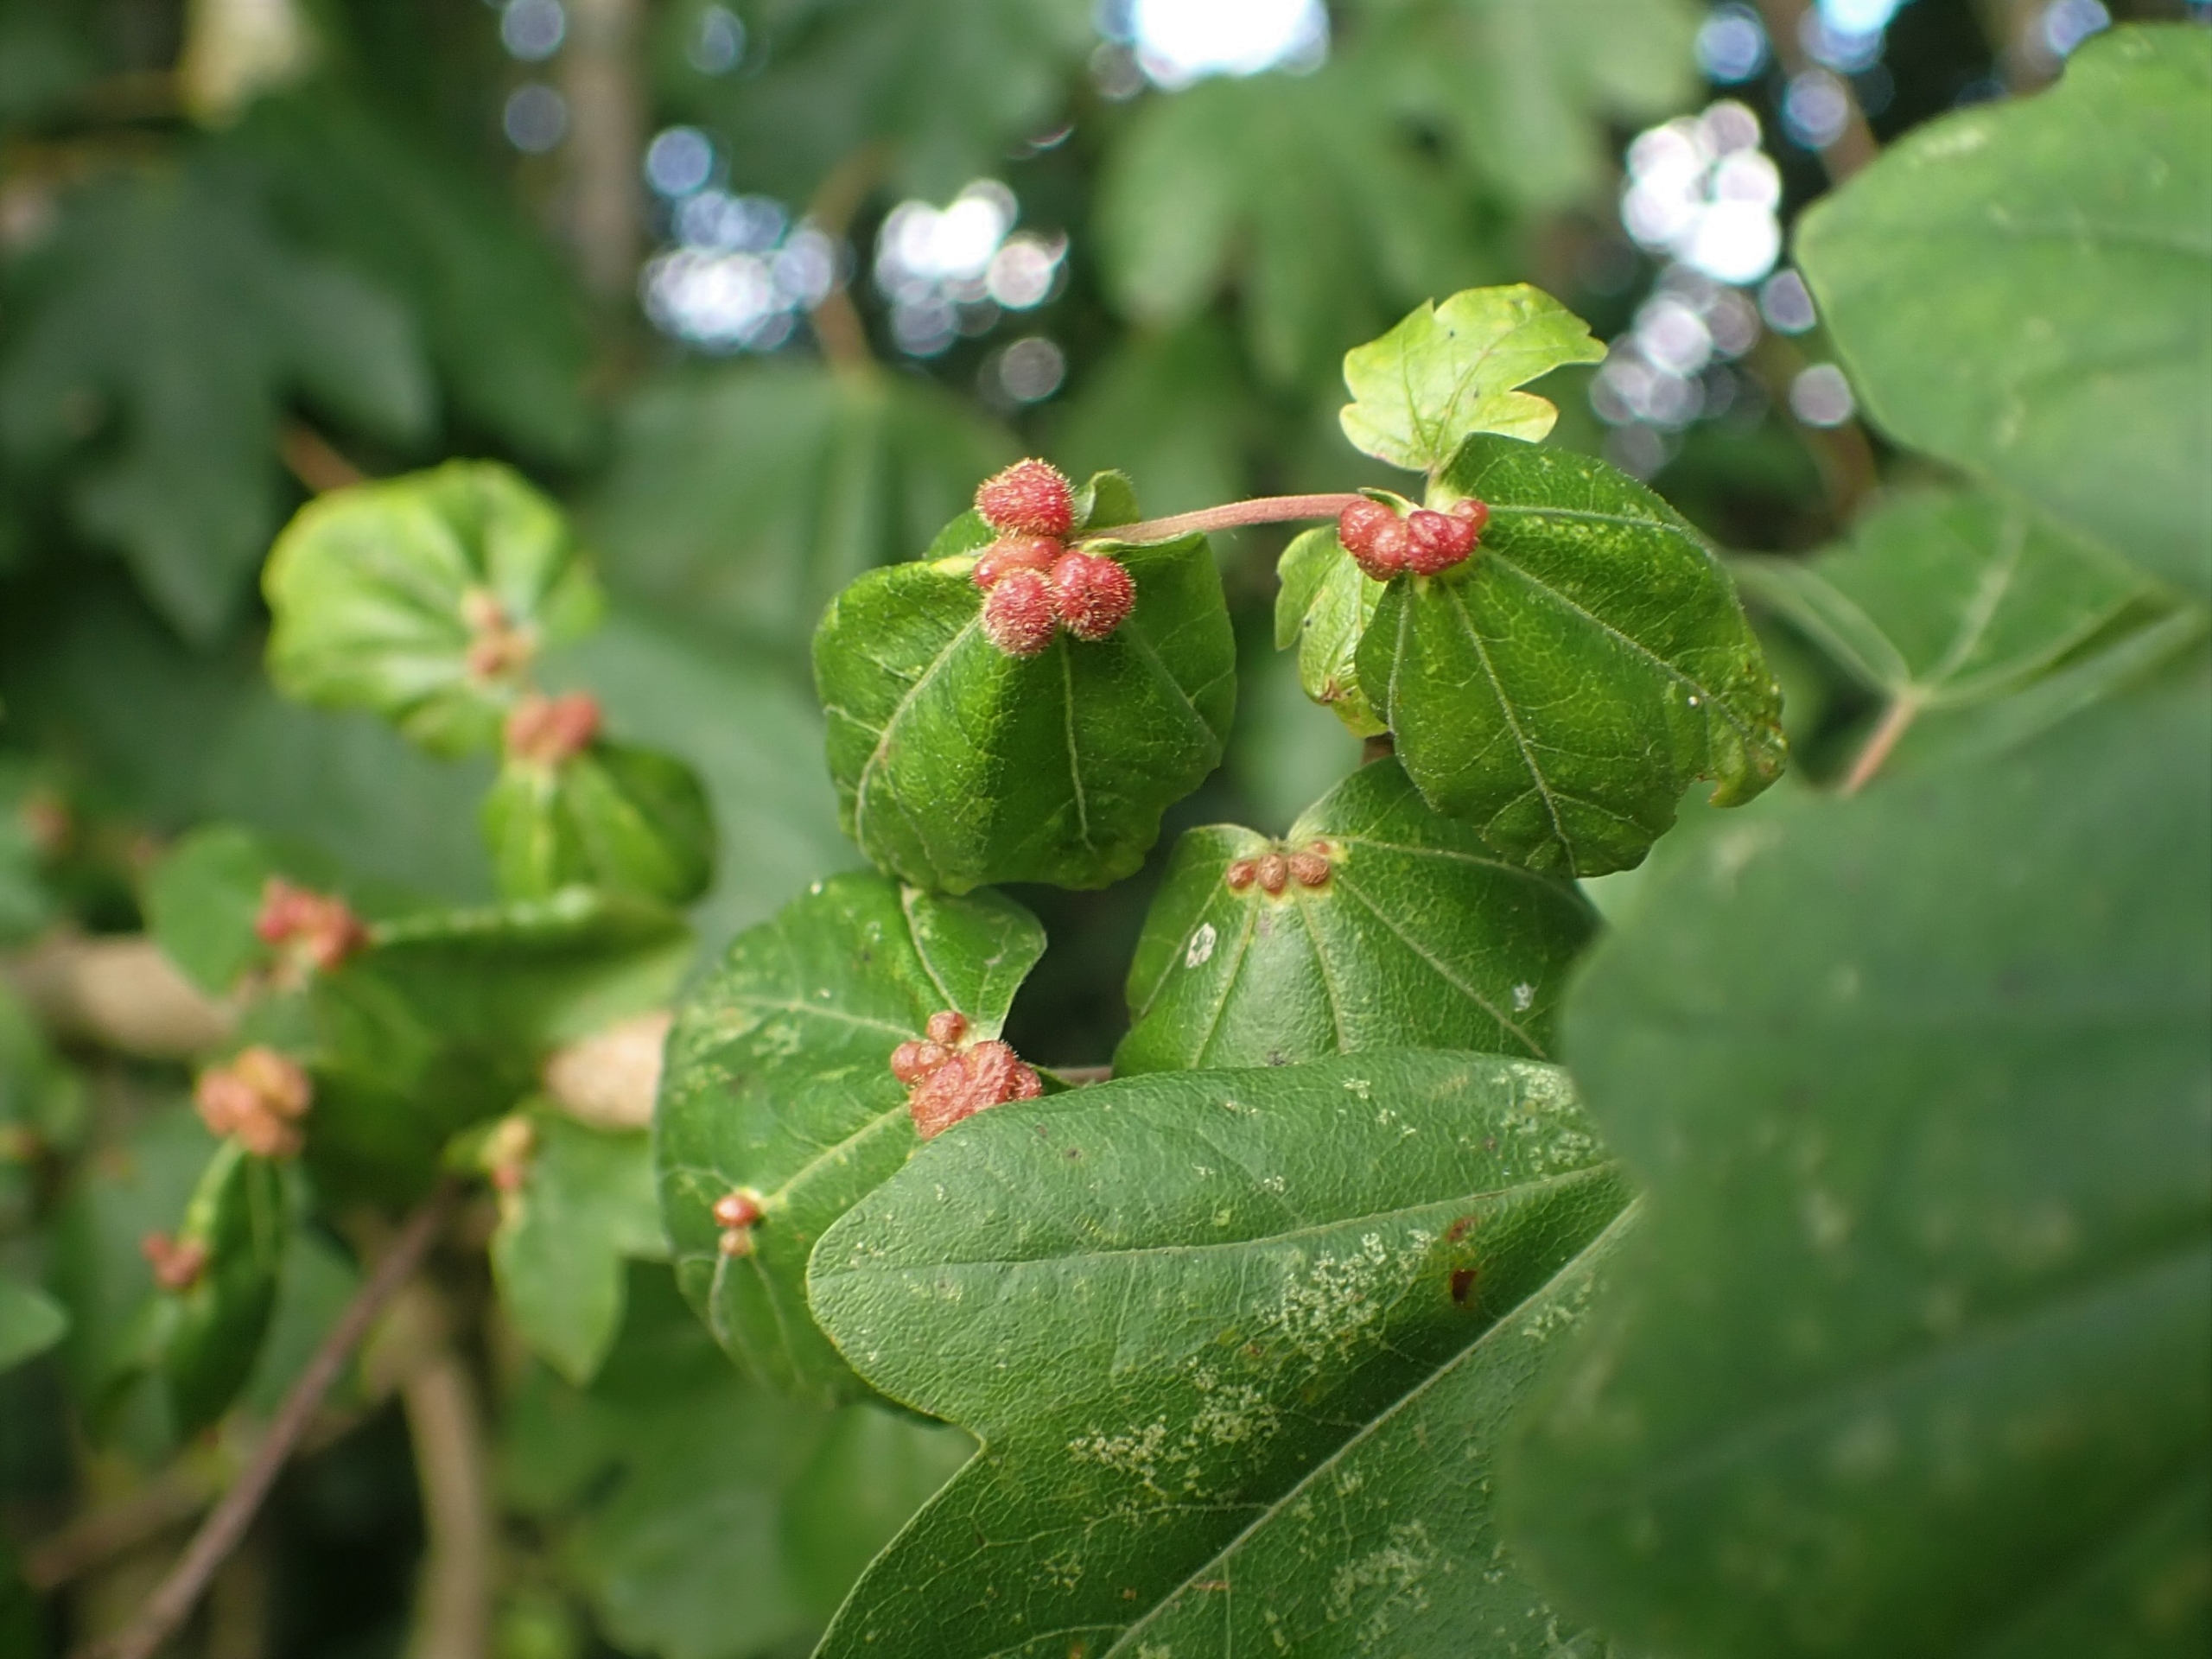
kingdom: Animalia
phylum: Arthropoda
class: Arachnida
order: Trombidiformes
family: Eriophyidae
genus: Aceria
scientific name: Aceria macrochelus
